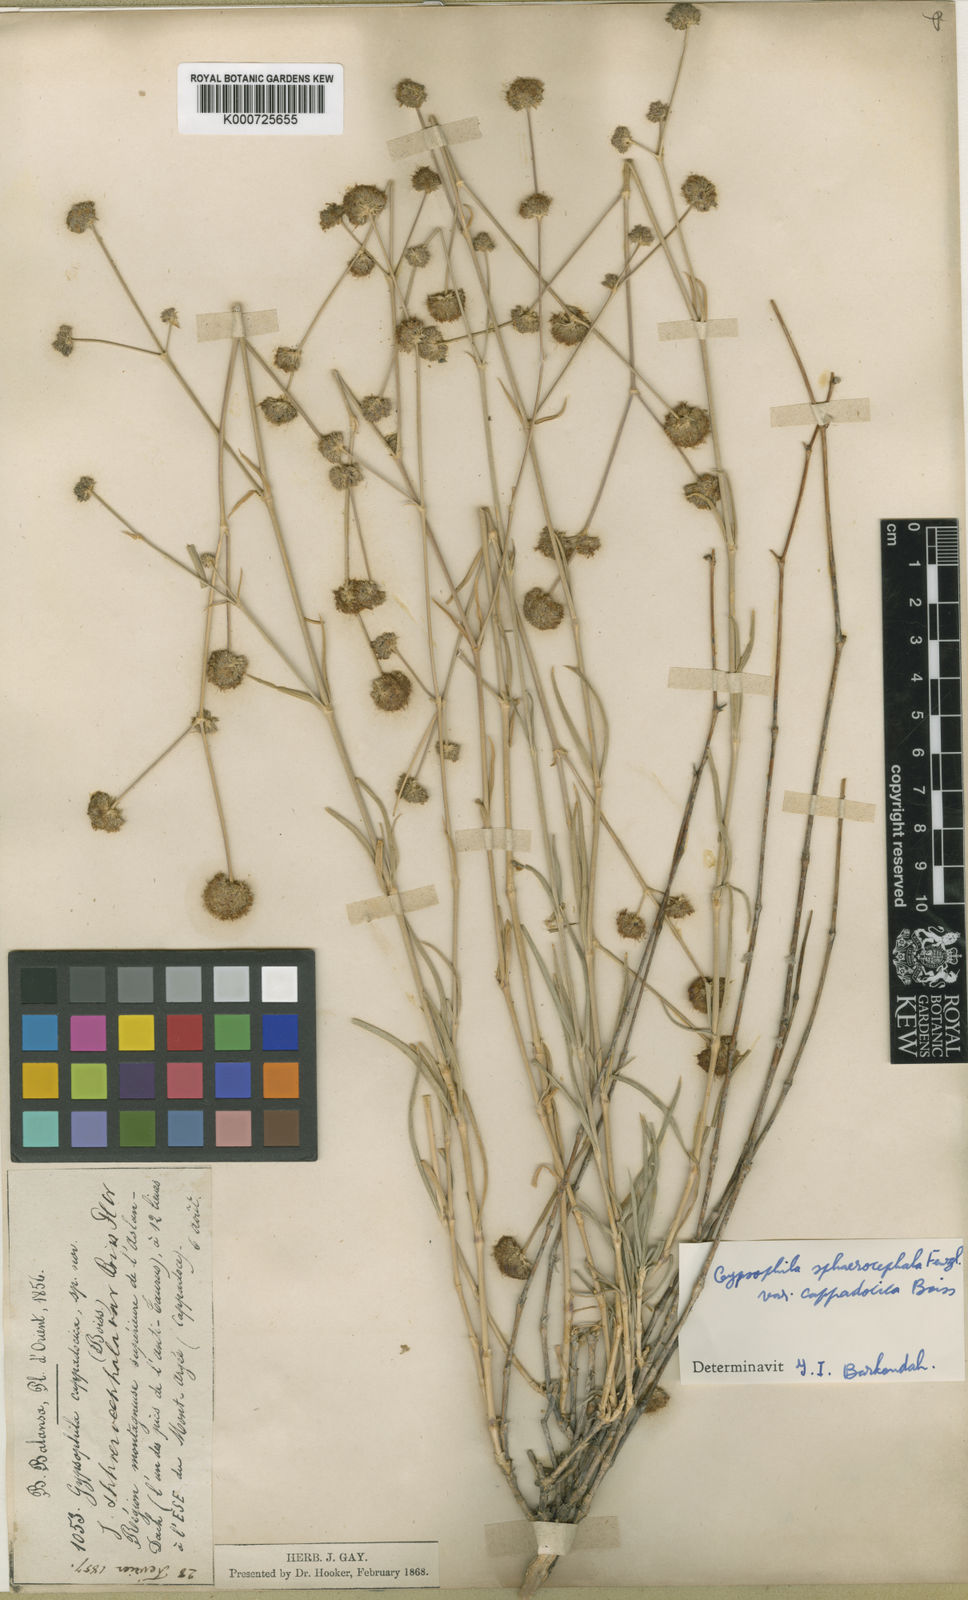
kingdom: Plantae
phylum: Tracheophyta
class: Magnoliopsida
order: Caryophyllales
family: Caryophyllaceae
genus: Gypsophila
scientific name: Gypsophila laricina
